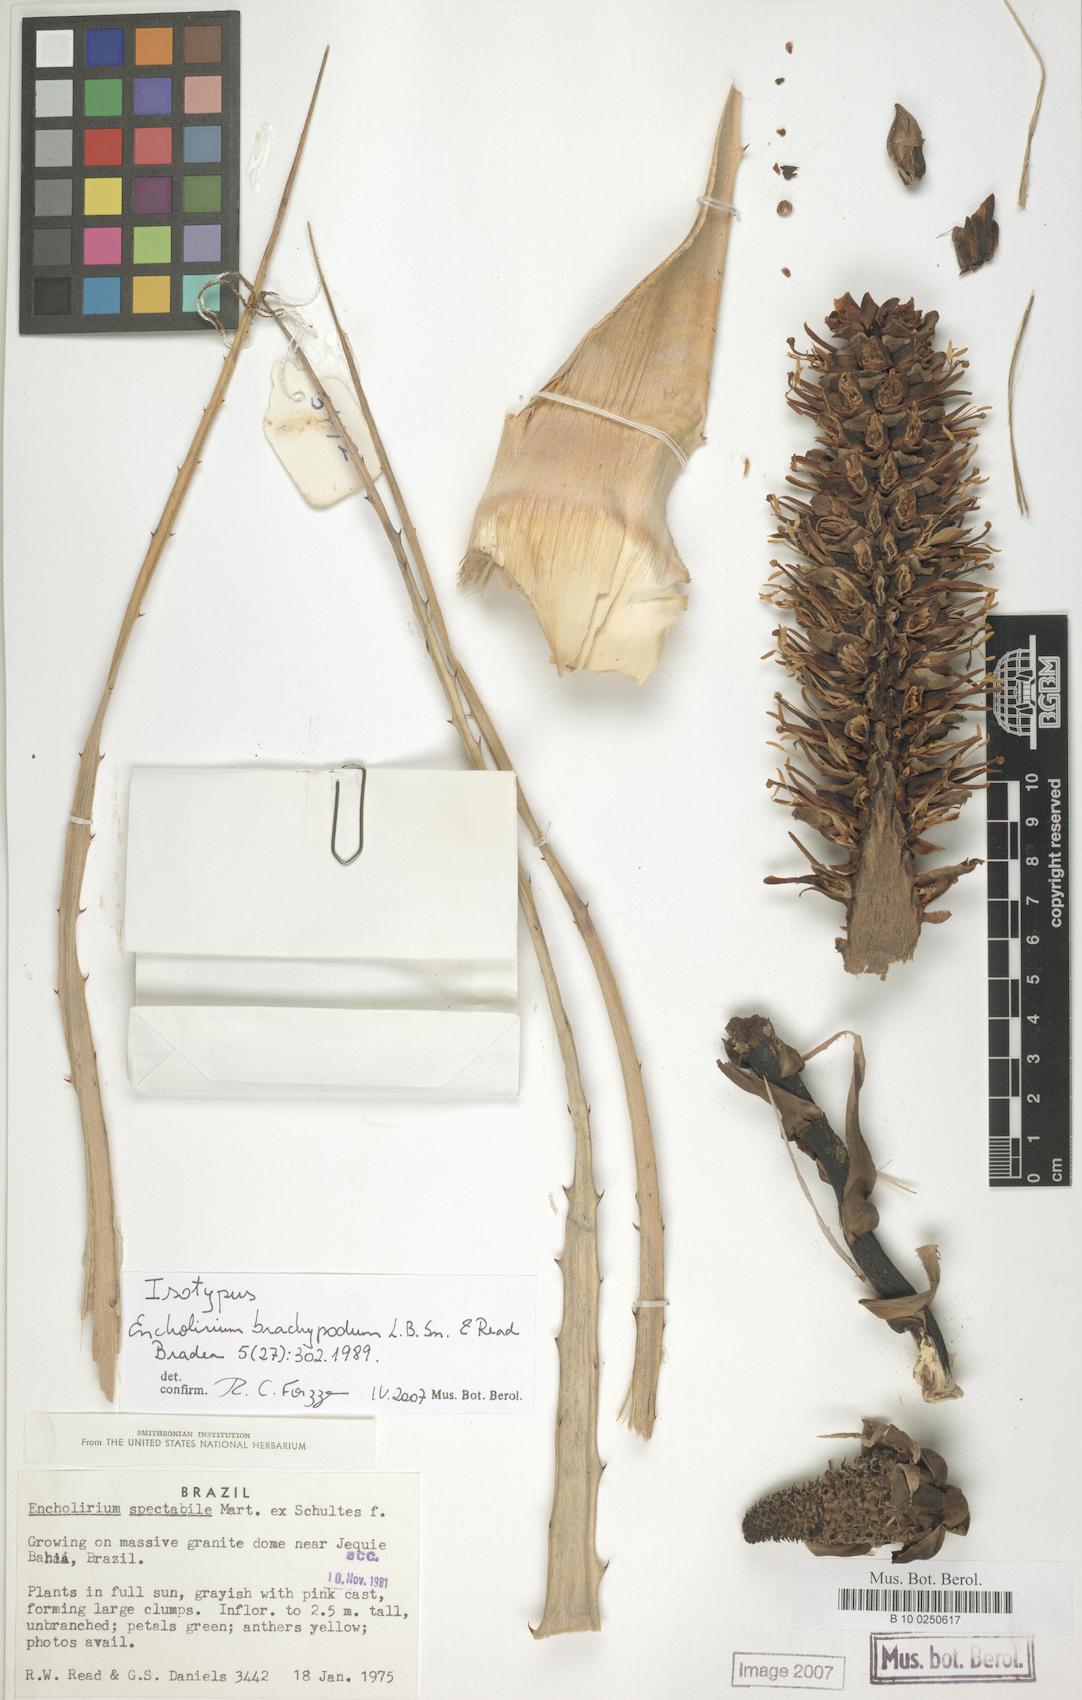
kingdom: Plantae
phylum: Tracheophyta
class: Liliopsida
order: Poales
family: Bromeliaceae
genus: Encholirium
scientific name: Encholirium spectabile
